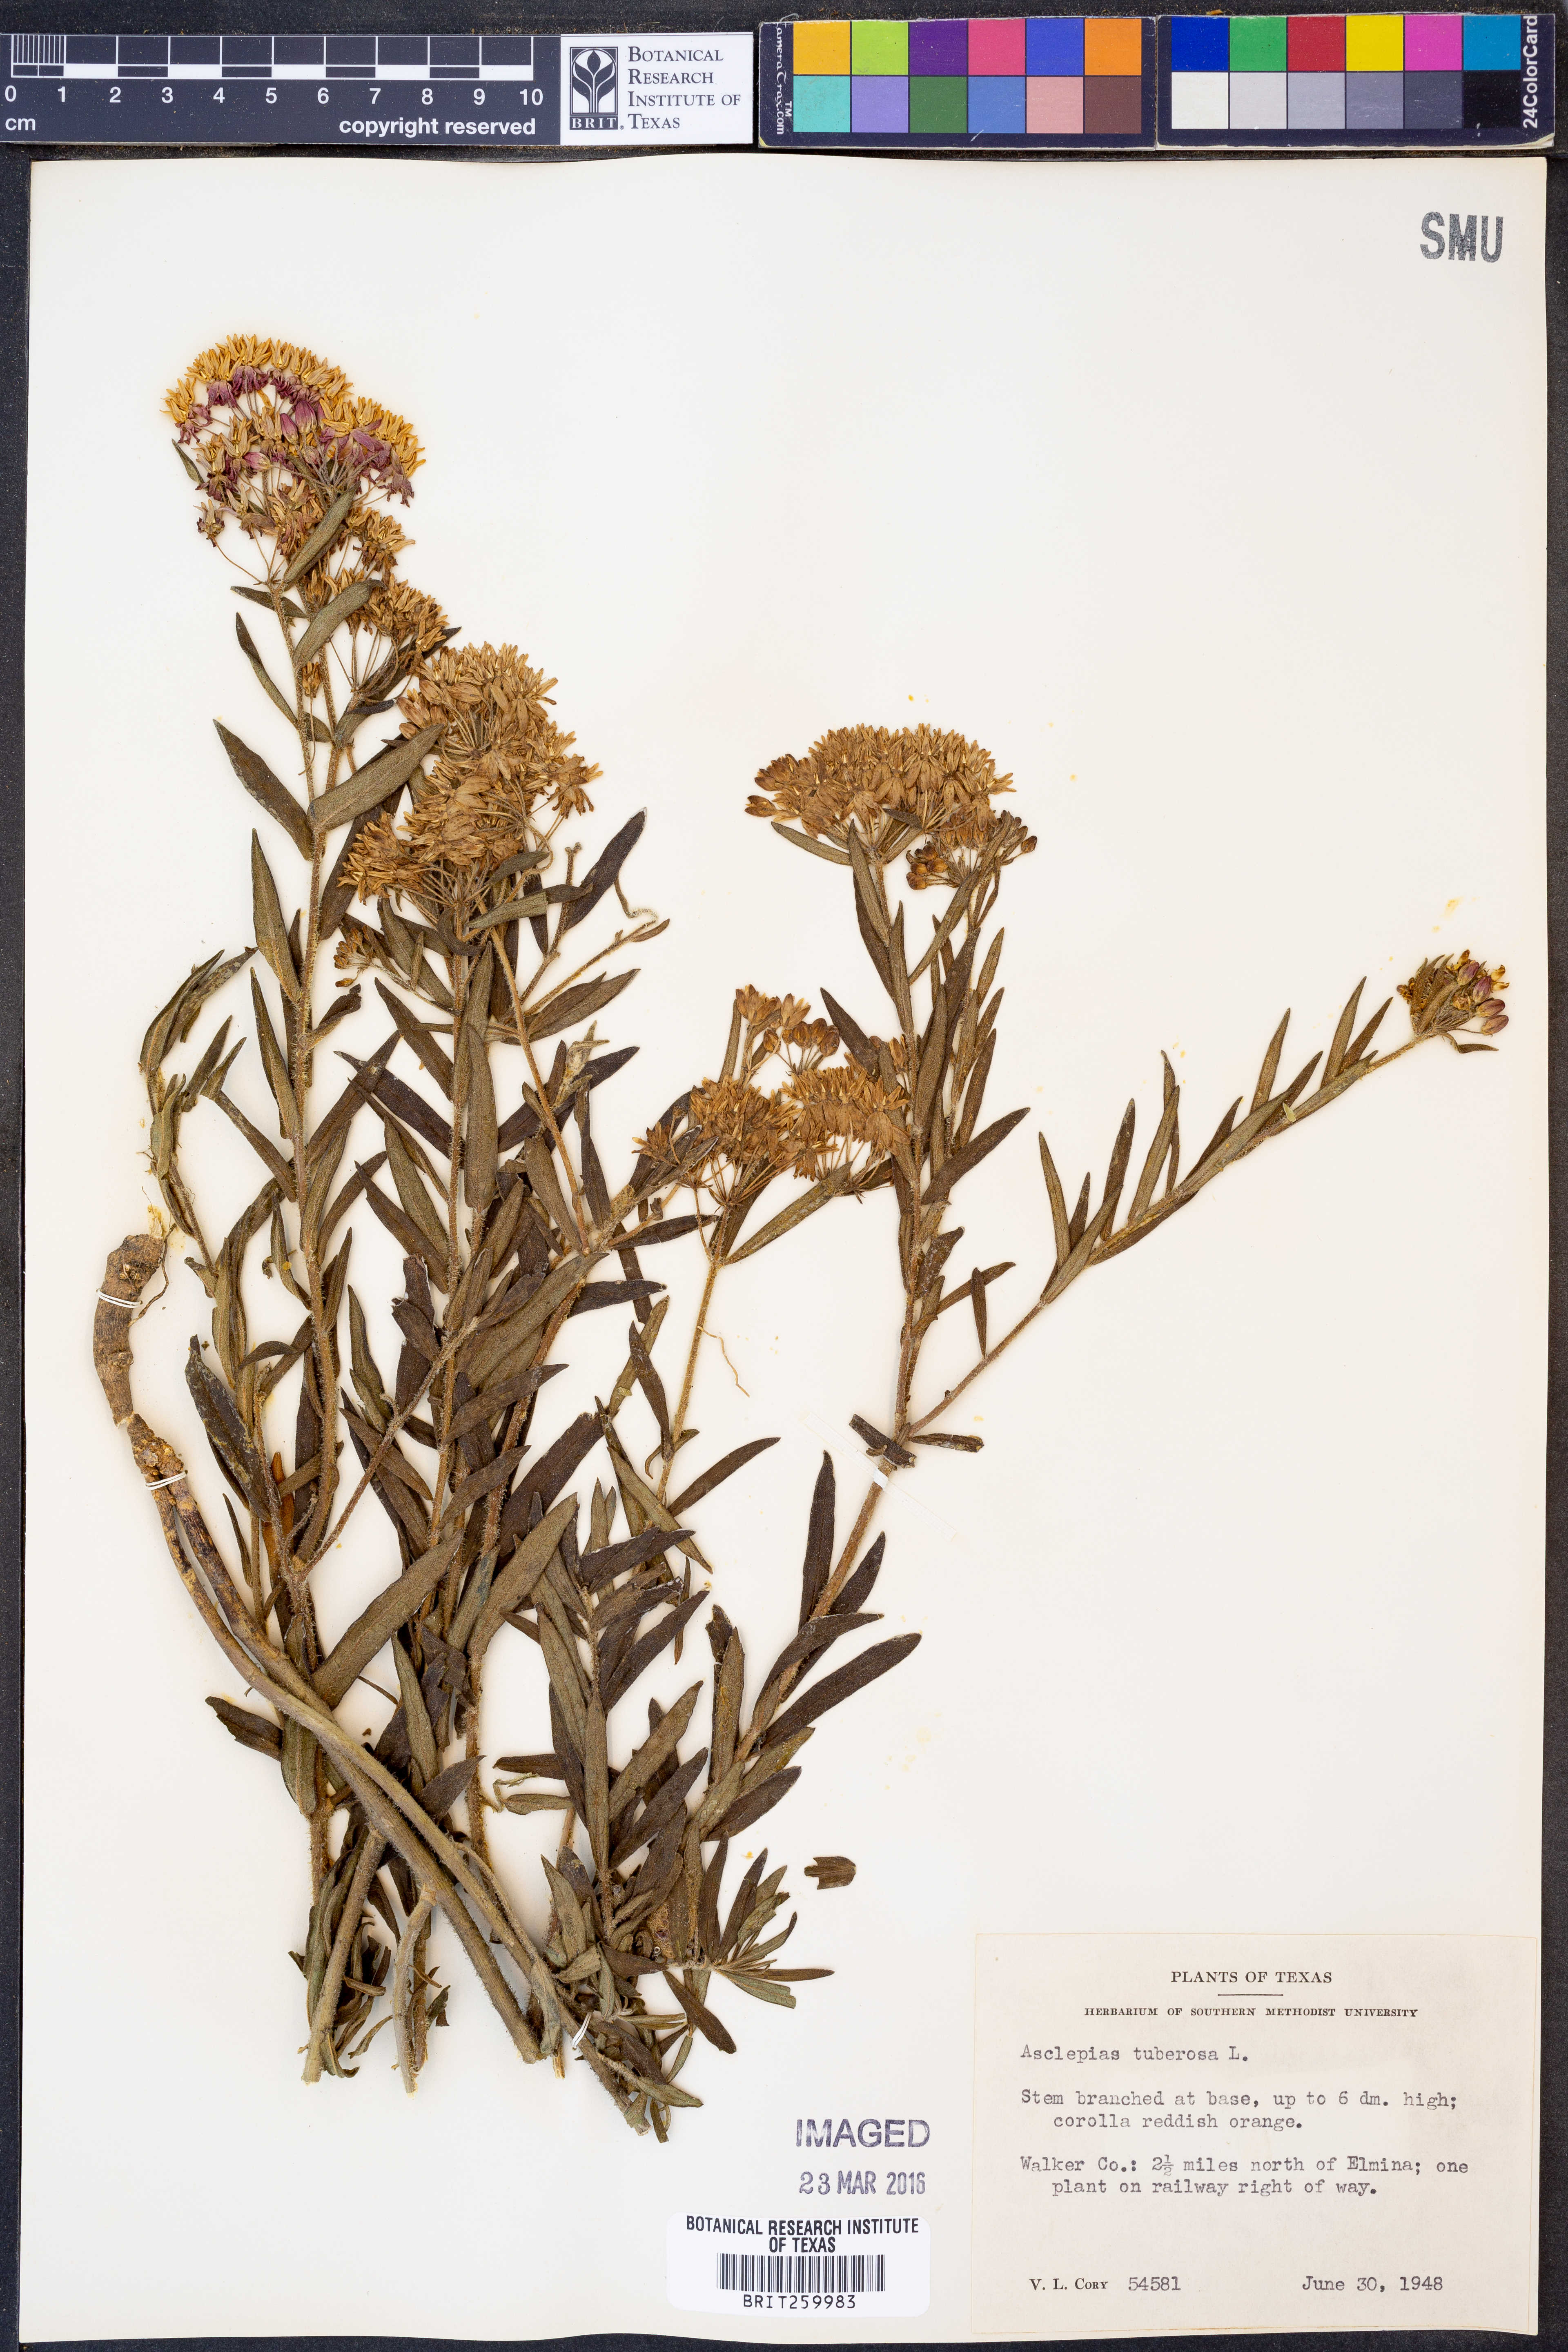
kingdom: Plantae
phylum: Tracheophyta
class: Magnoliopsida
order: Gentianales
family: Apocynaceae
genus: Asclepias
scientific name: Asclepias tuberosa
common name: Butterfly milkweed
